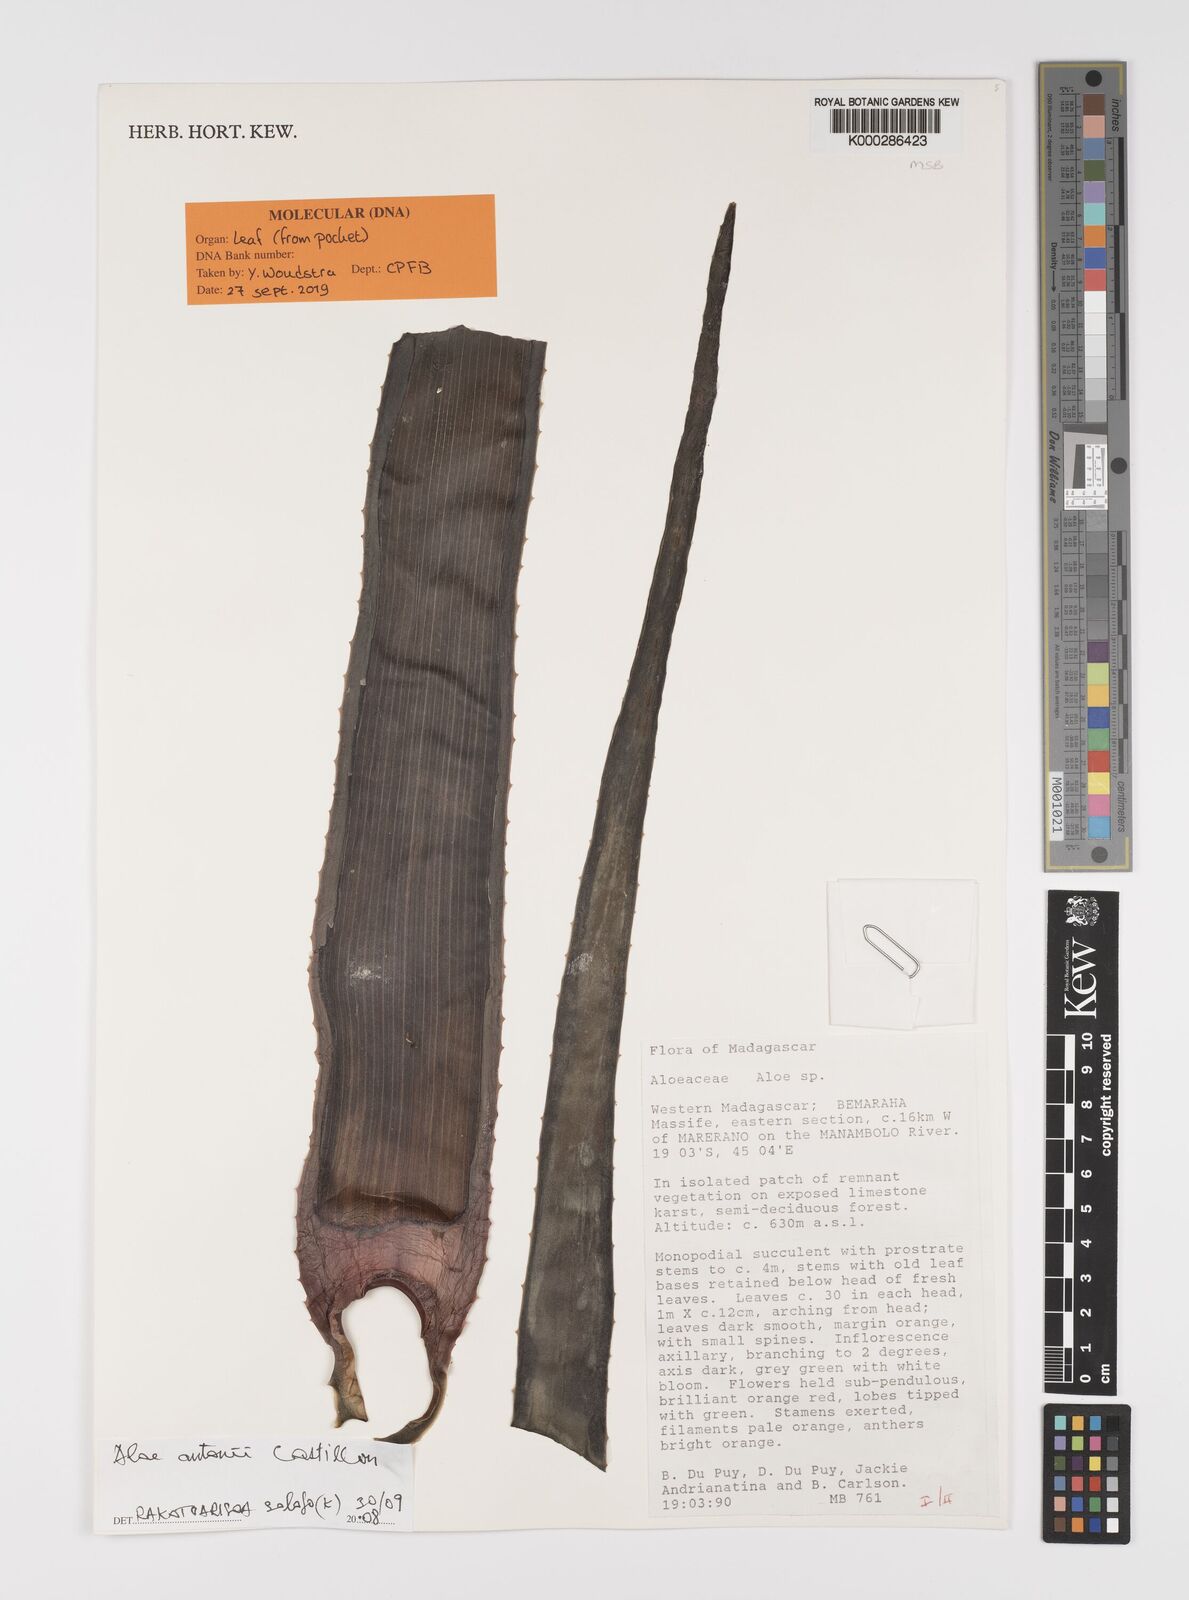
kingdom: Plantae
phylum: Tracheophyta
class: Liliopsida
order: Asparagales
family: Asphodelaceae
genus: Aloe
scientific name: Aloe
